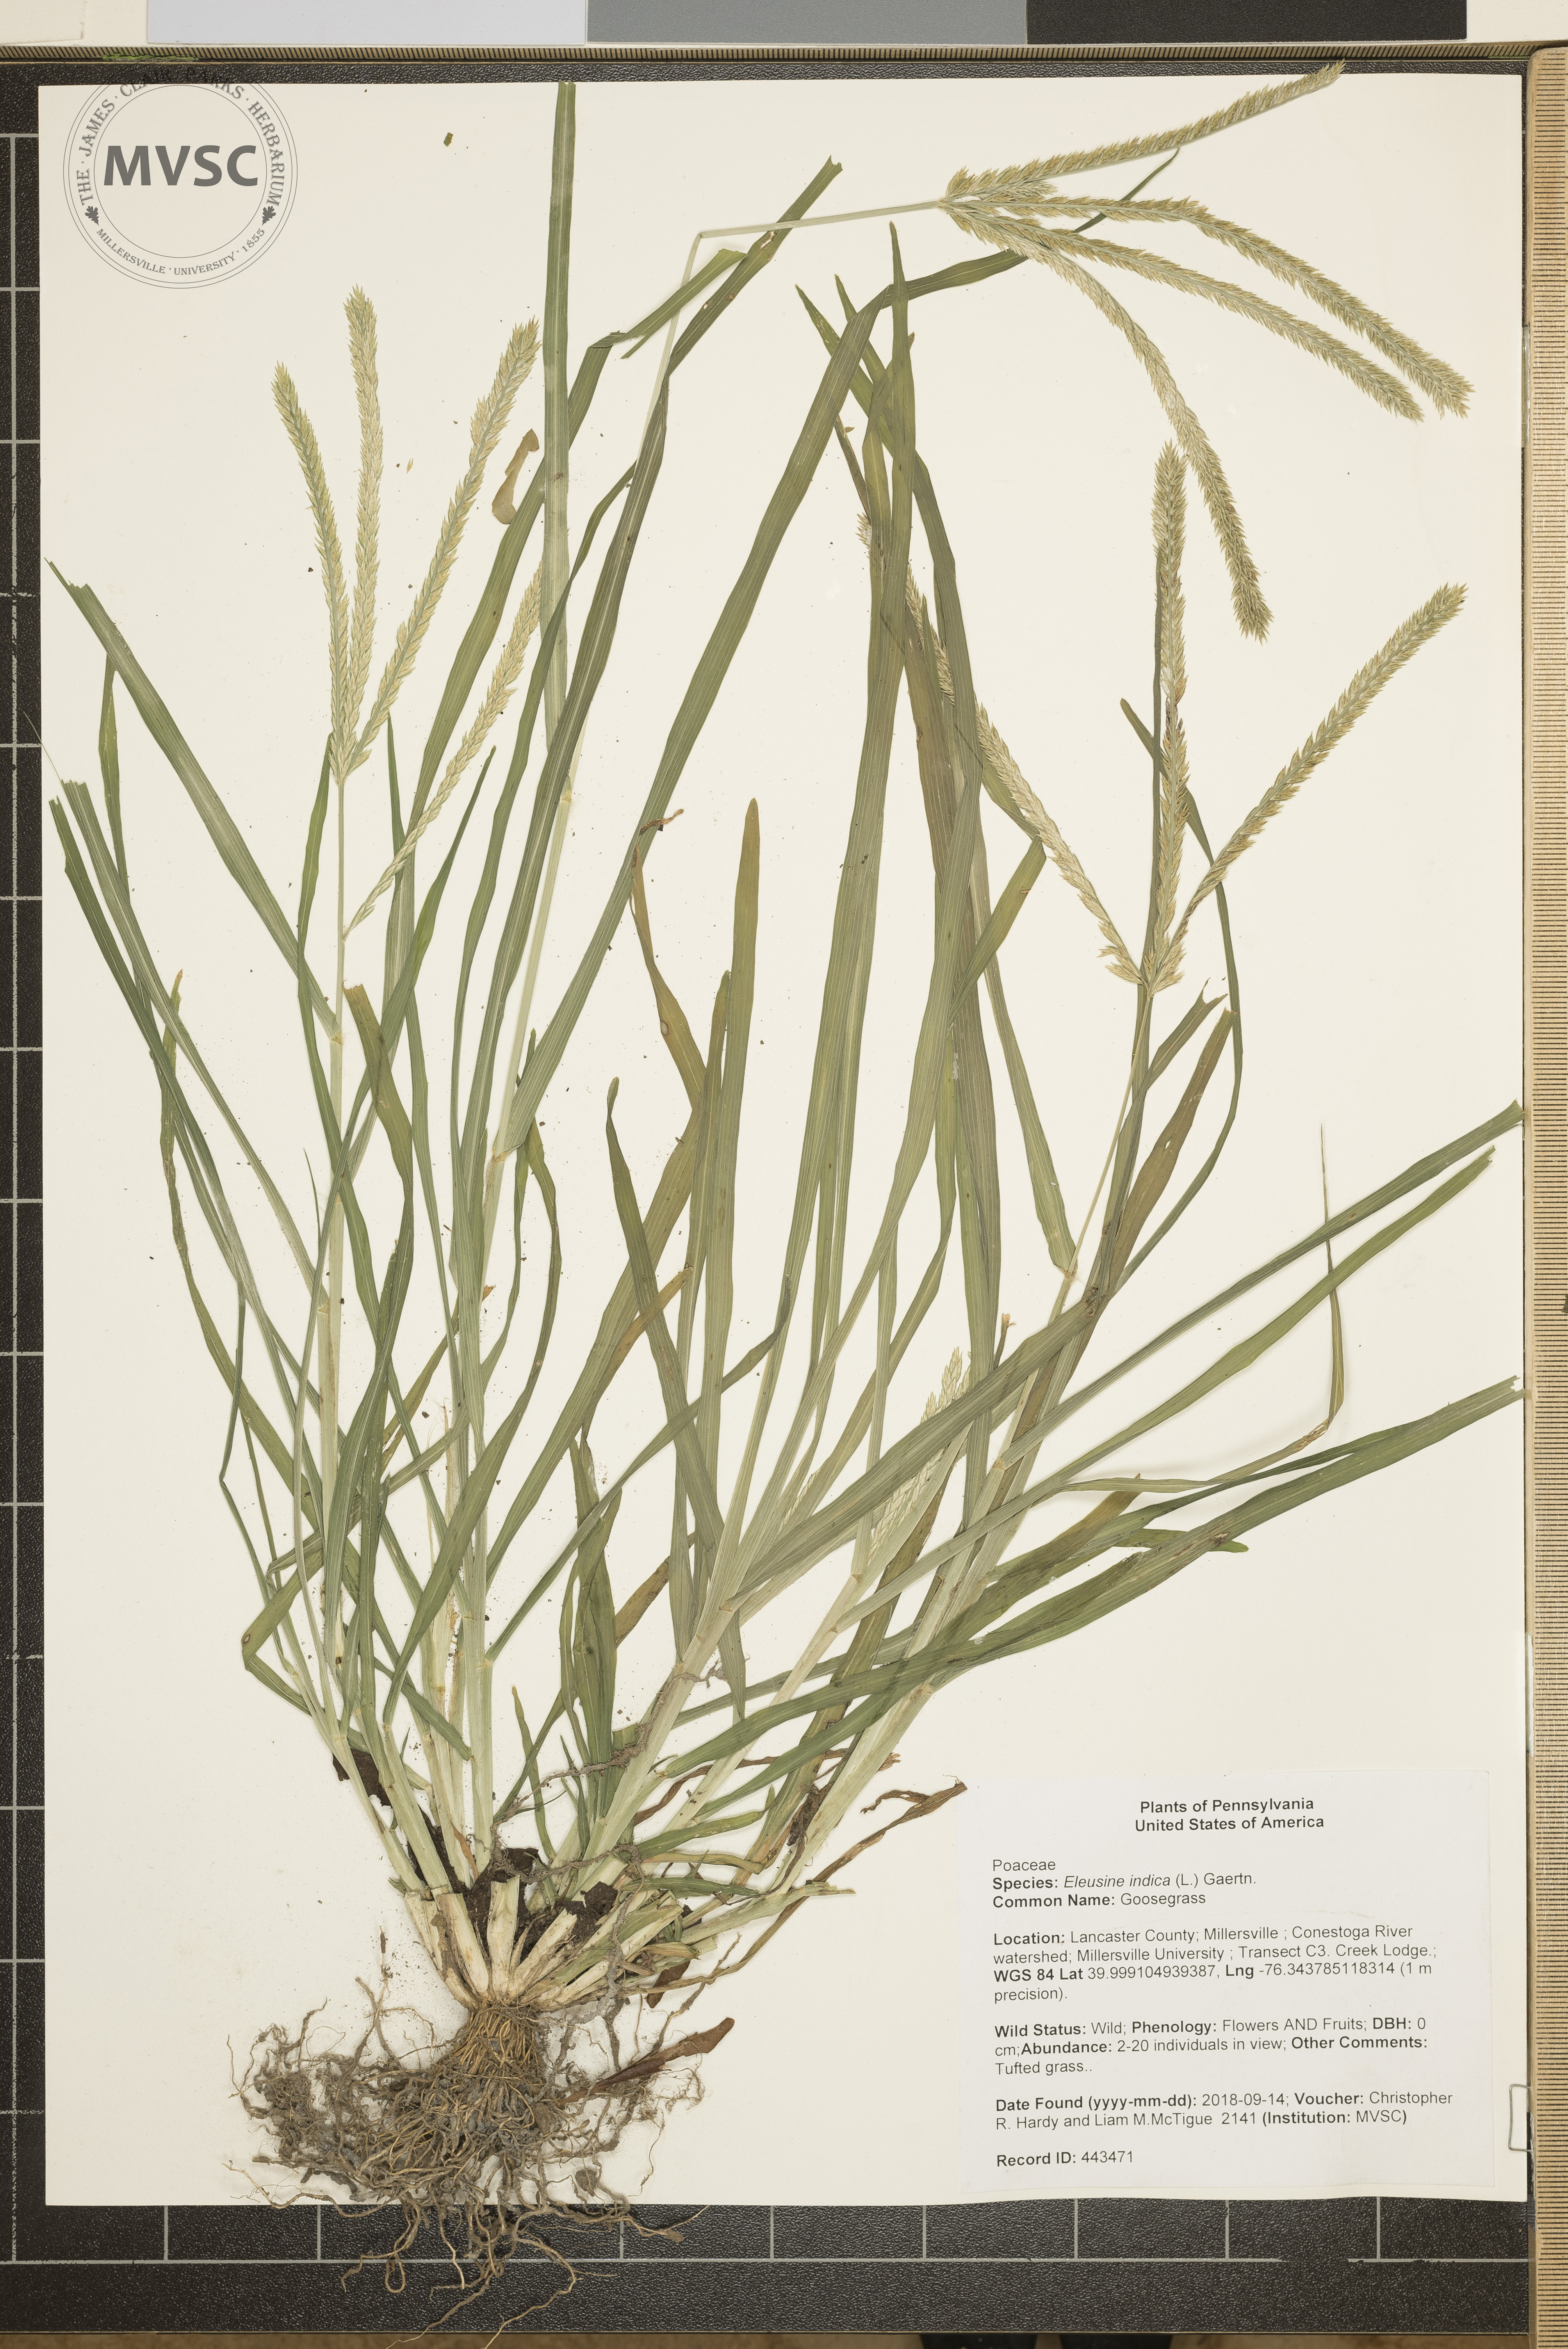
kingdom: Plantae
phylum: Tracheophyta
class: Liliopsida
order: Poales
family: Poaceae
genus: Eleusine
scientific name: Eleusine indica
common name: Goosegrass
